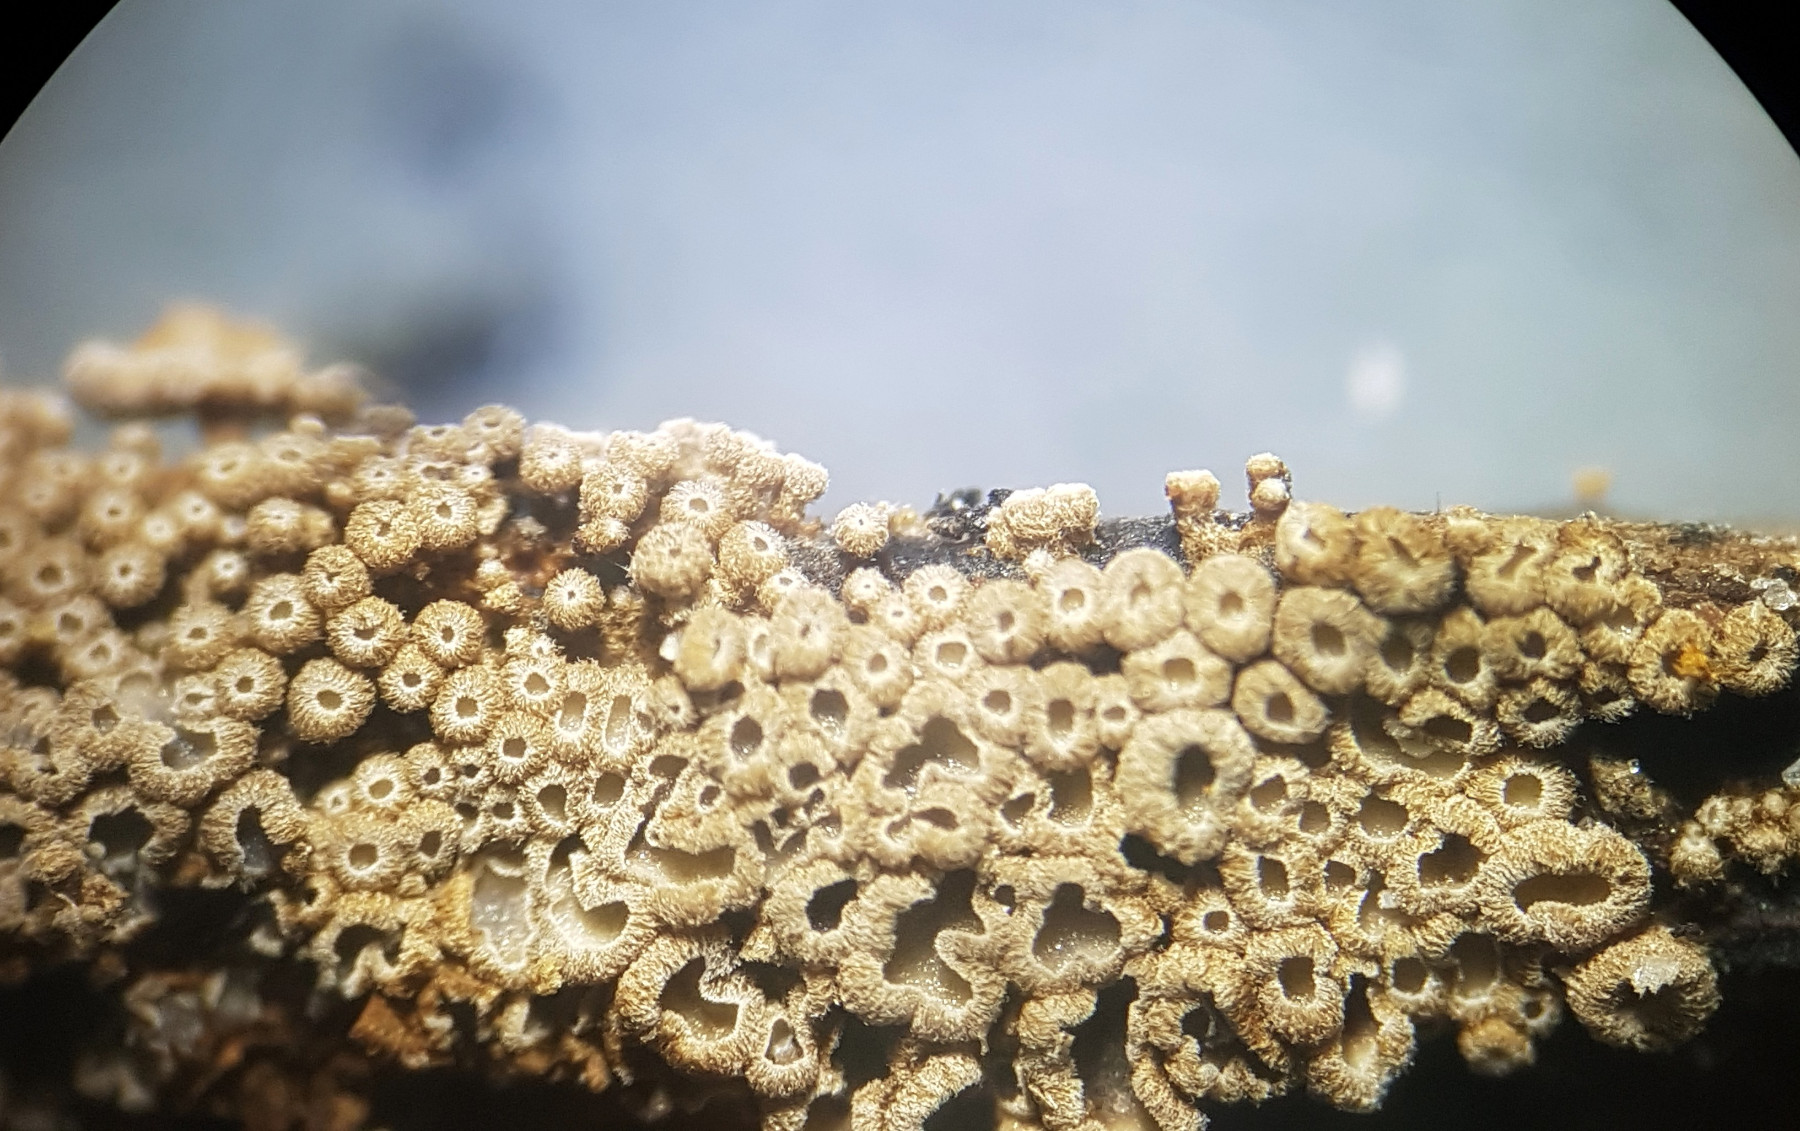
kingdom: Fungi
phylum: Basidiomycota
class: Agaricomycetes
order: Agaricales
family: Niaceae
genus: Merismodes
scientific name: Merismodes anomala
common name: almindelig læderskål
